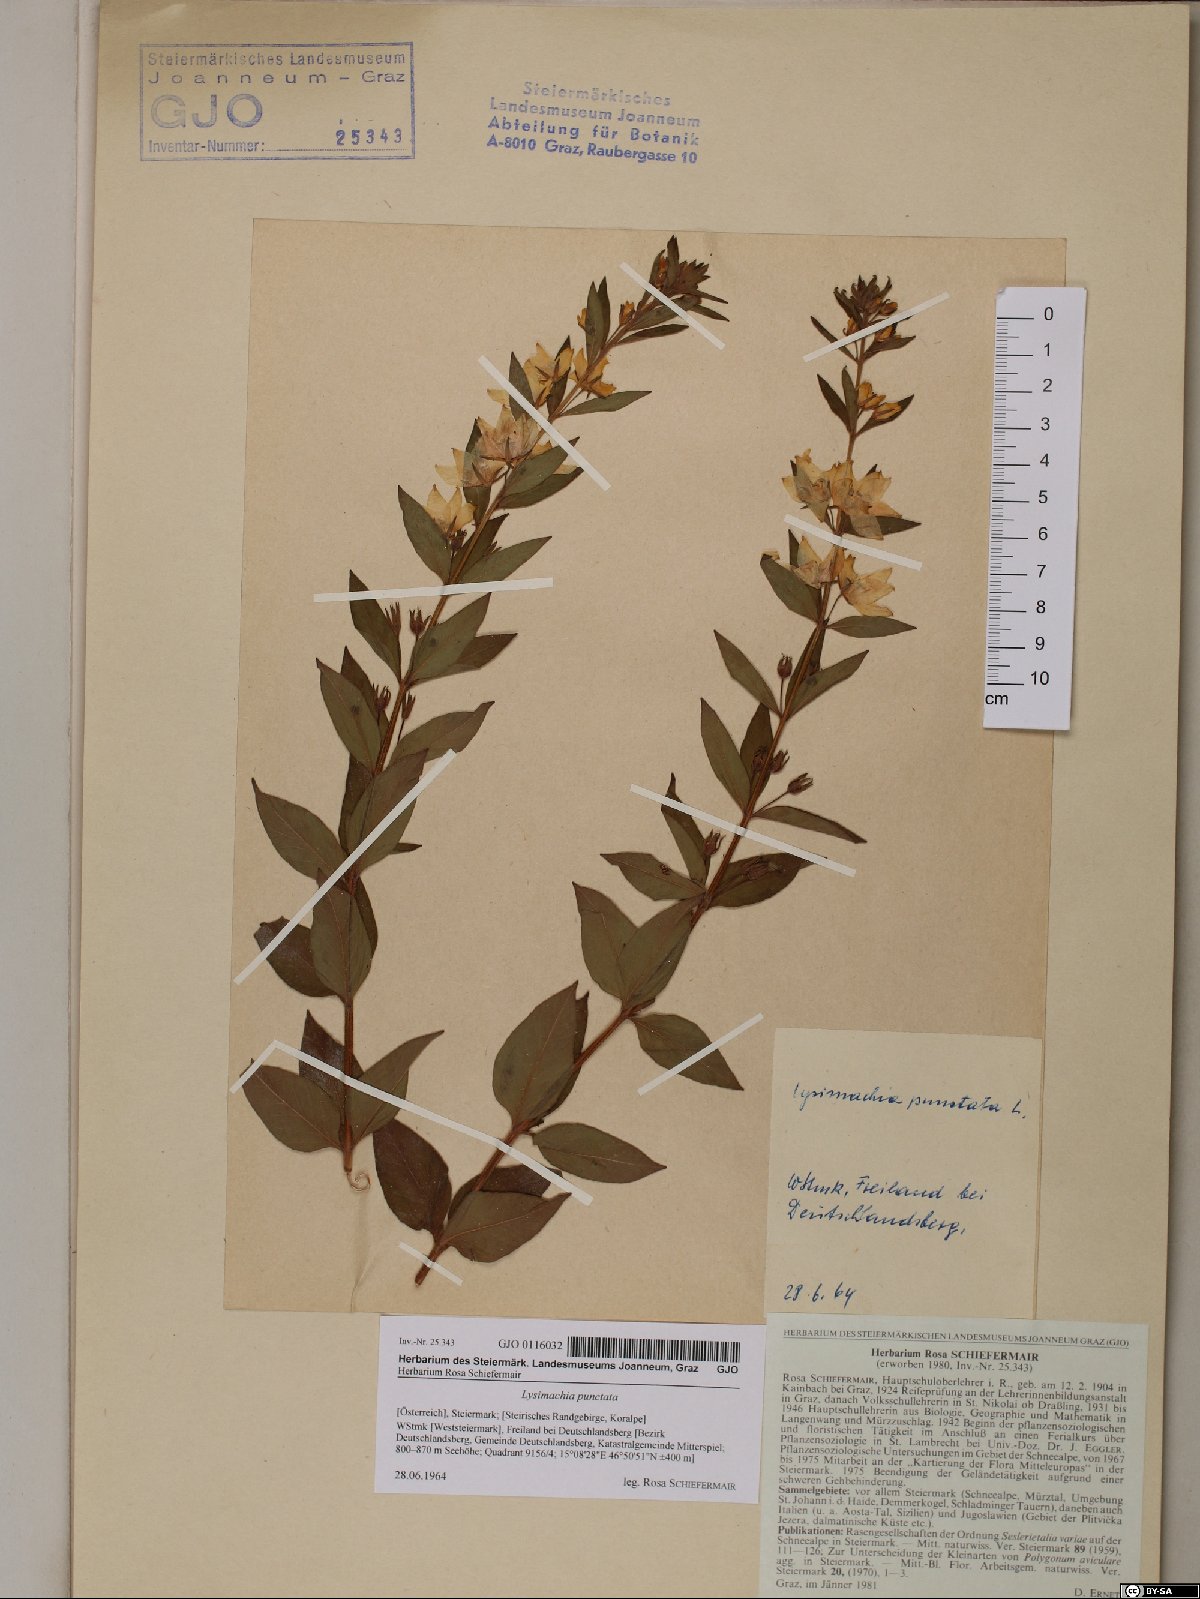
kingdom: Plantae
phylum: Tracheophyta
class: Magnoliopsida
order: Ericales
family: Primulaceae
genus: Lysimachia
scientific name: Lysimachia punctata
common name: Dotted loosestrife
